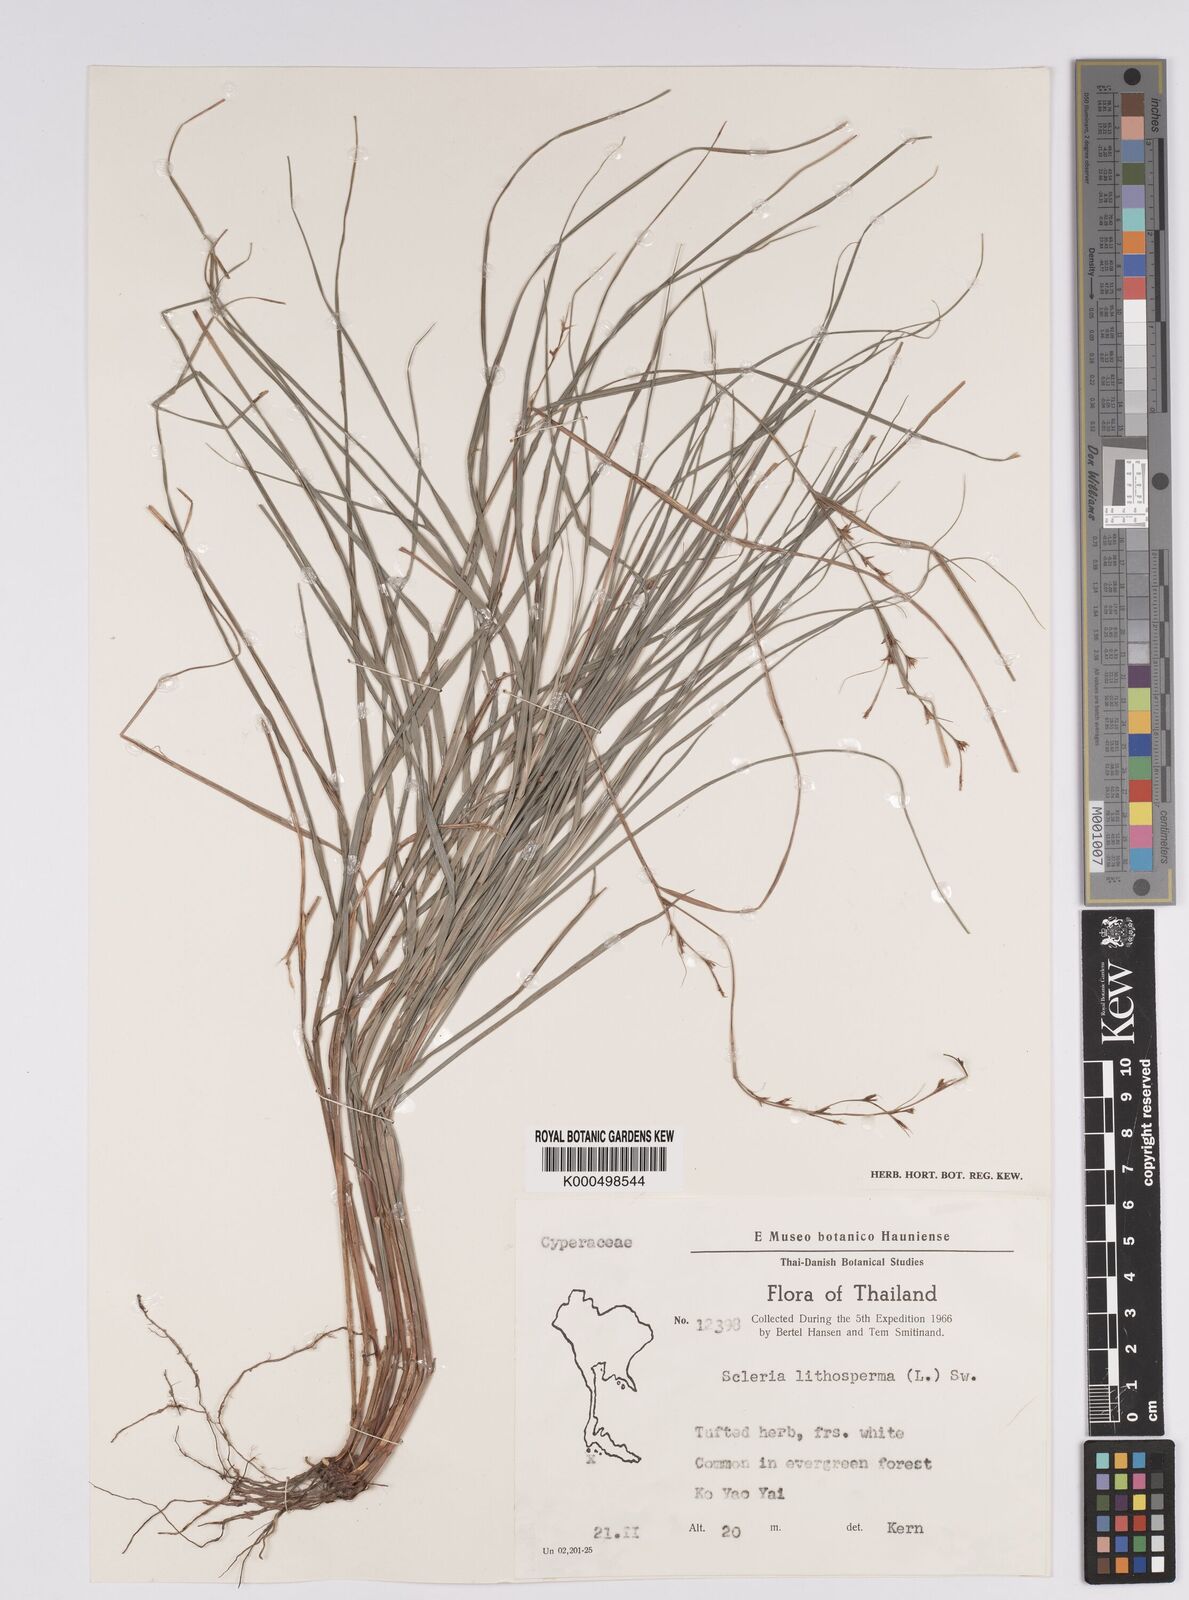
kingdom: Plantae
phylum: Tracheophyta
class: Liliopsida
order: Poales
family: Cyperaceae
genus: Scleria
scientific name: Scleria lithosperma
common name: Florida keys nut-rush
